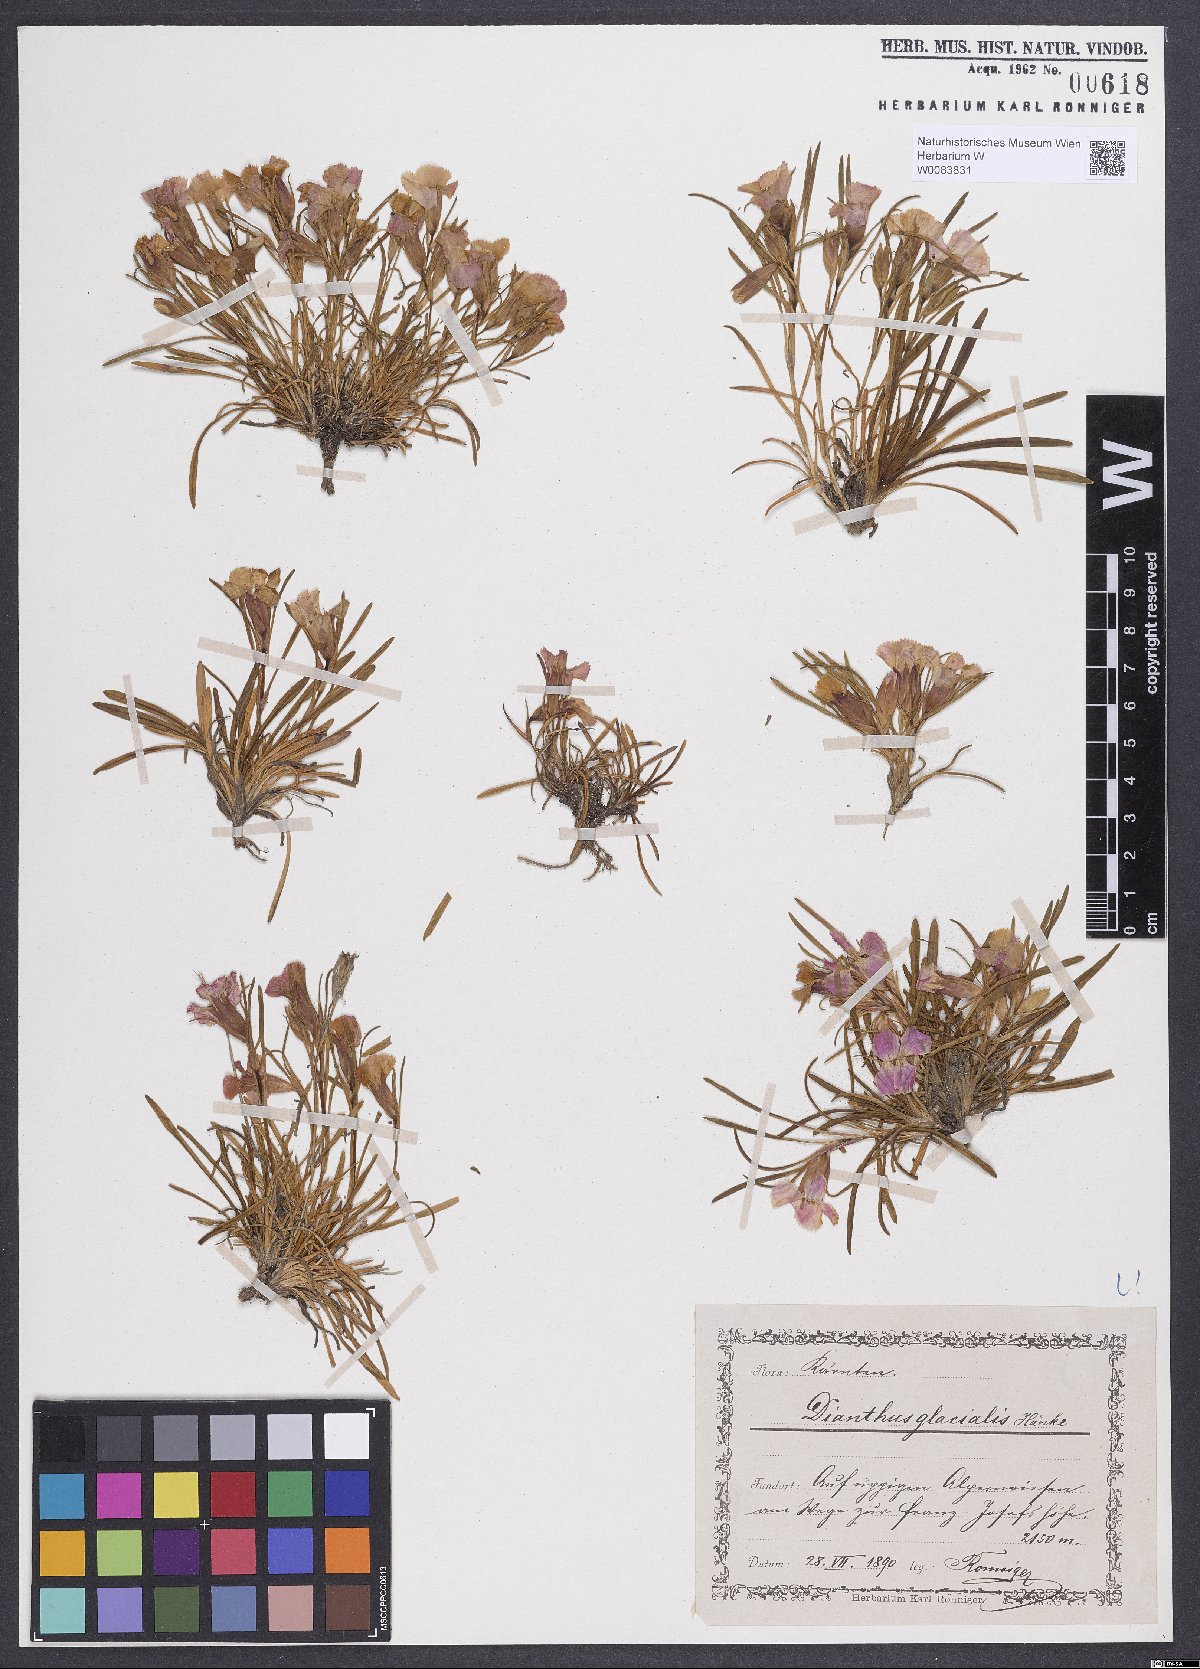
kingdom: Plantae
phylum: Tracheophyta
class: Magnoliopsida
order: Caryophyllales
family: Caryophyllaceae
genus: Dianthus
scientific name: Dianthus glacialis
